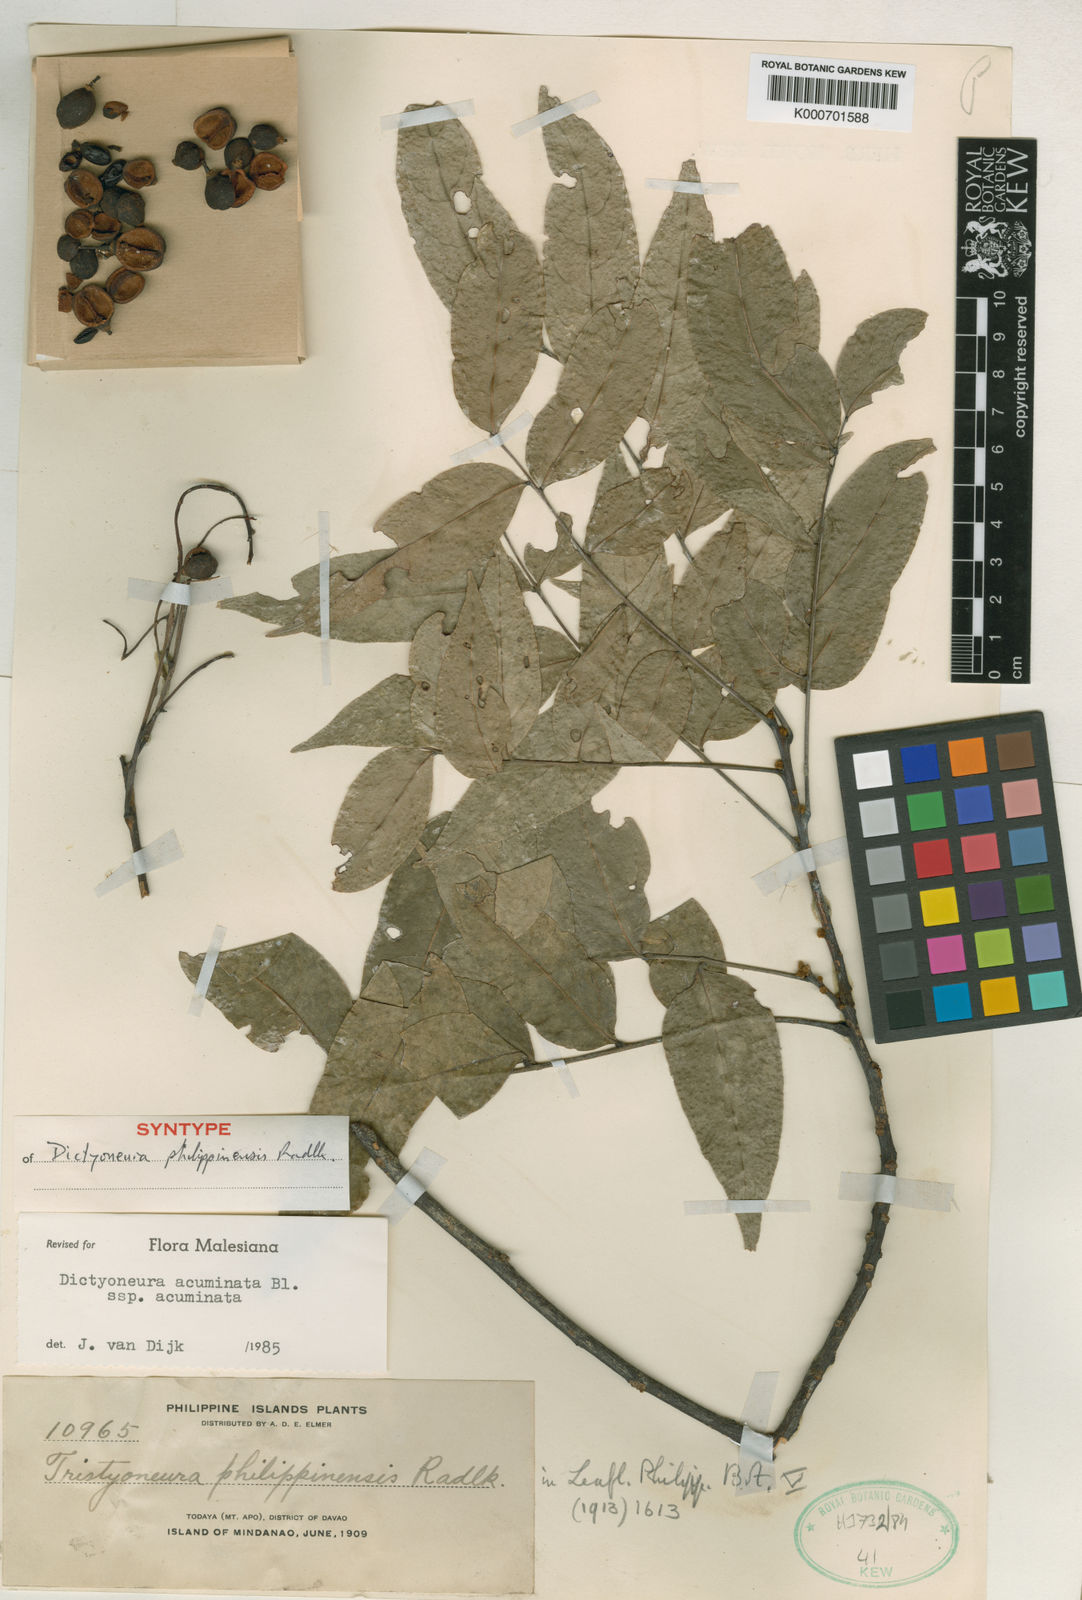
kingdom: Plantae
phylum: Tracheophyta
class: Magnoliopsida
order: Sapindales
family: Sapindaceae
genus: Dictyoneura
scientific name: Dictyoneura acuminata
